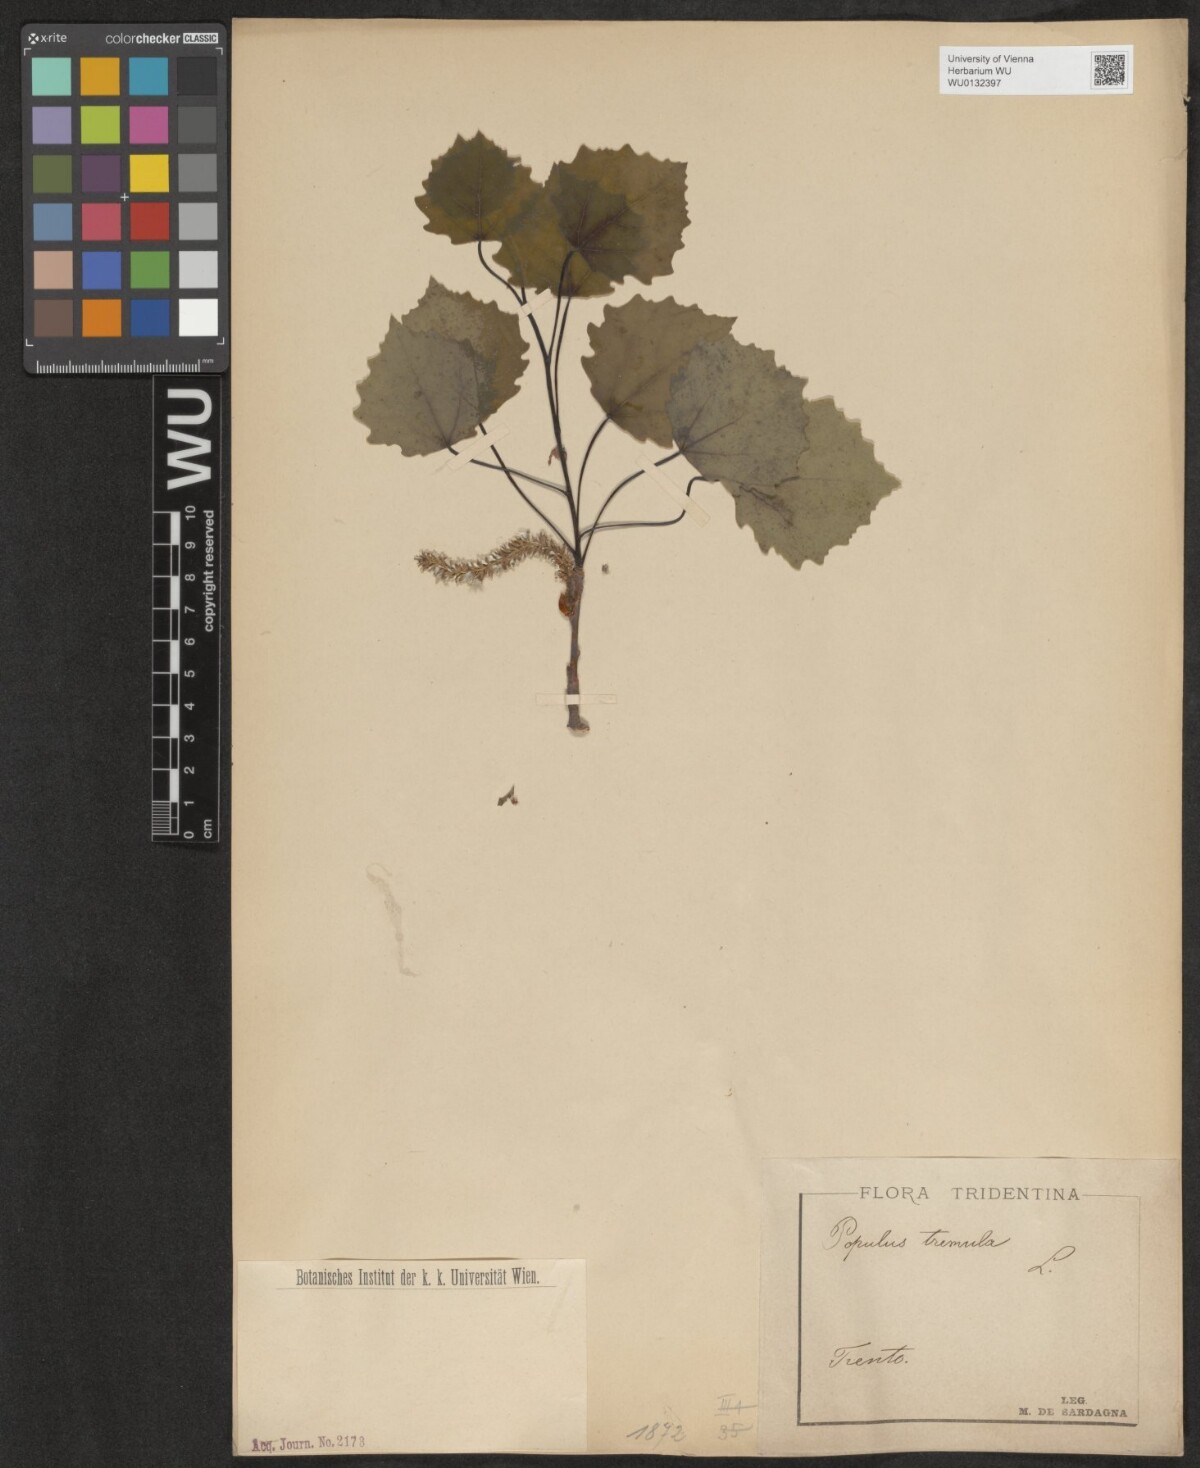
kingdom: Plantae
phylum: Tracheophyta
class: Magnoliopsida
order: Malpighiales
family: Salicaceae
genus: Populus
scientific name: Populus tremula
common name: European aspen
